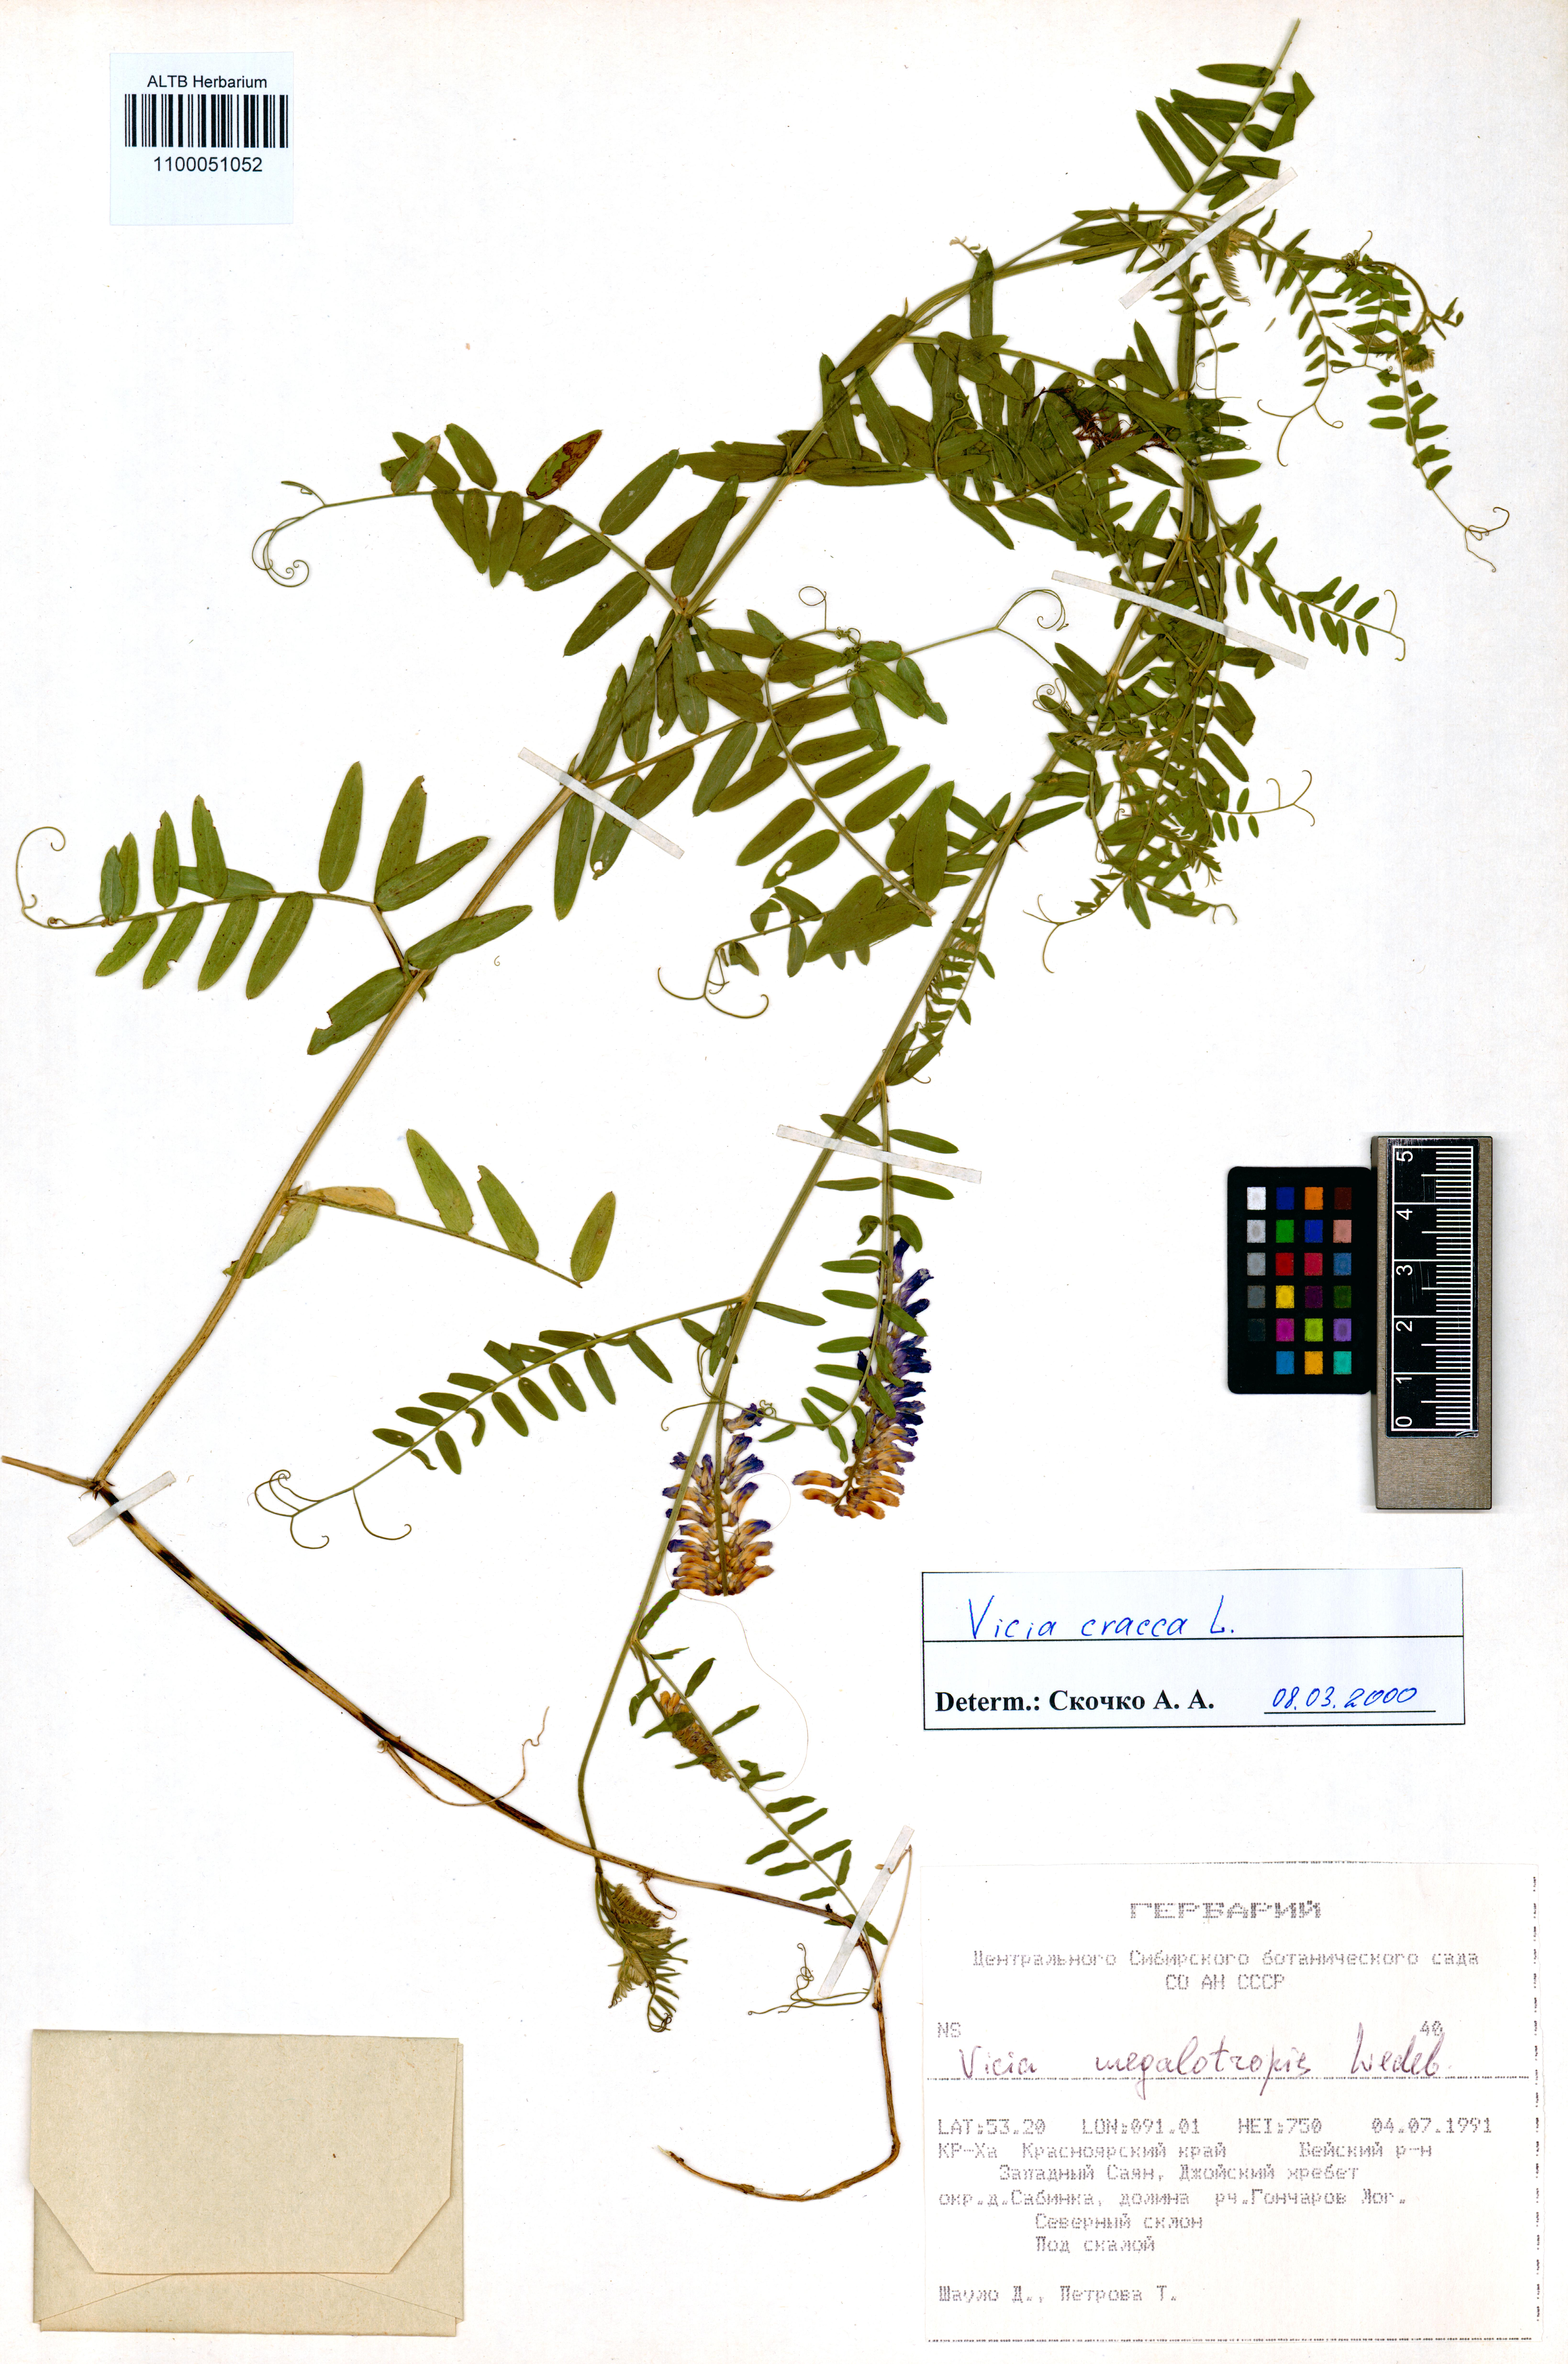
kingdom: Plantae
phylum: Tracheophyta
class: Magnoliopsida
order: Fabales
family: Fabaceae
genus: Vicia
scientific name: Vicia cracca
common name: Bird vetch
